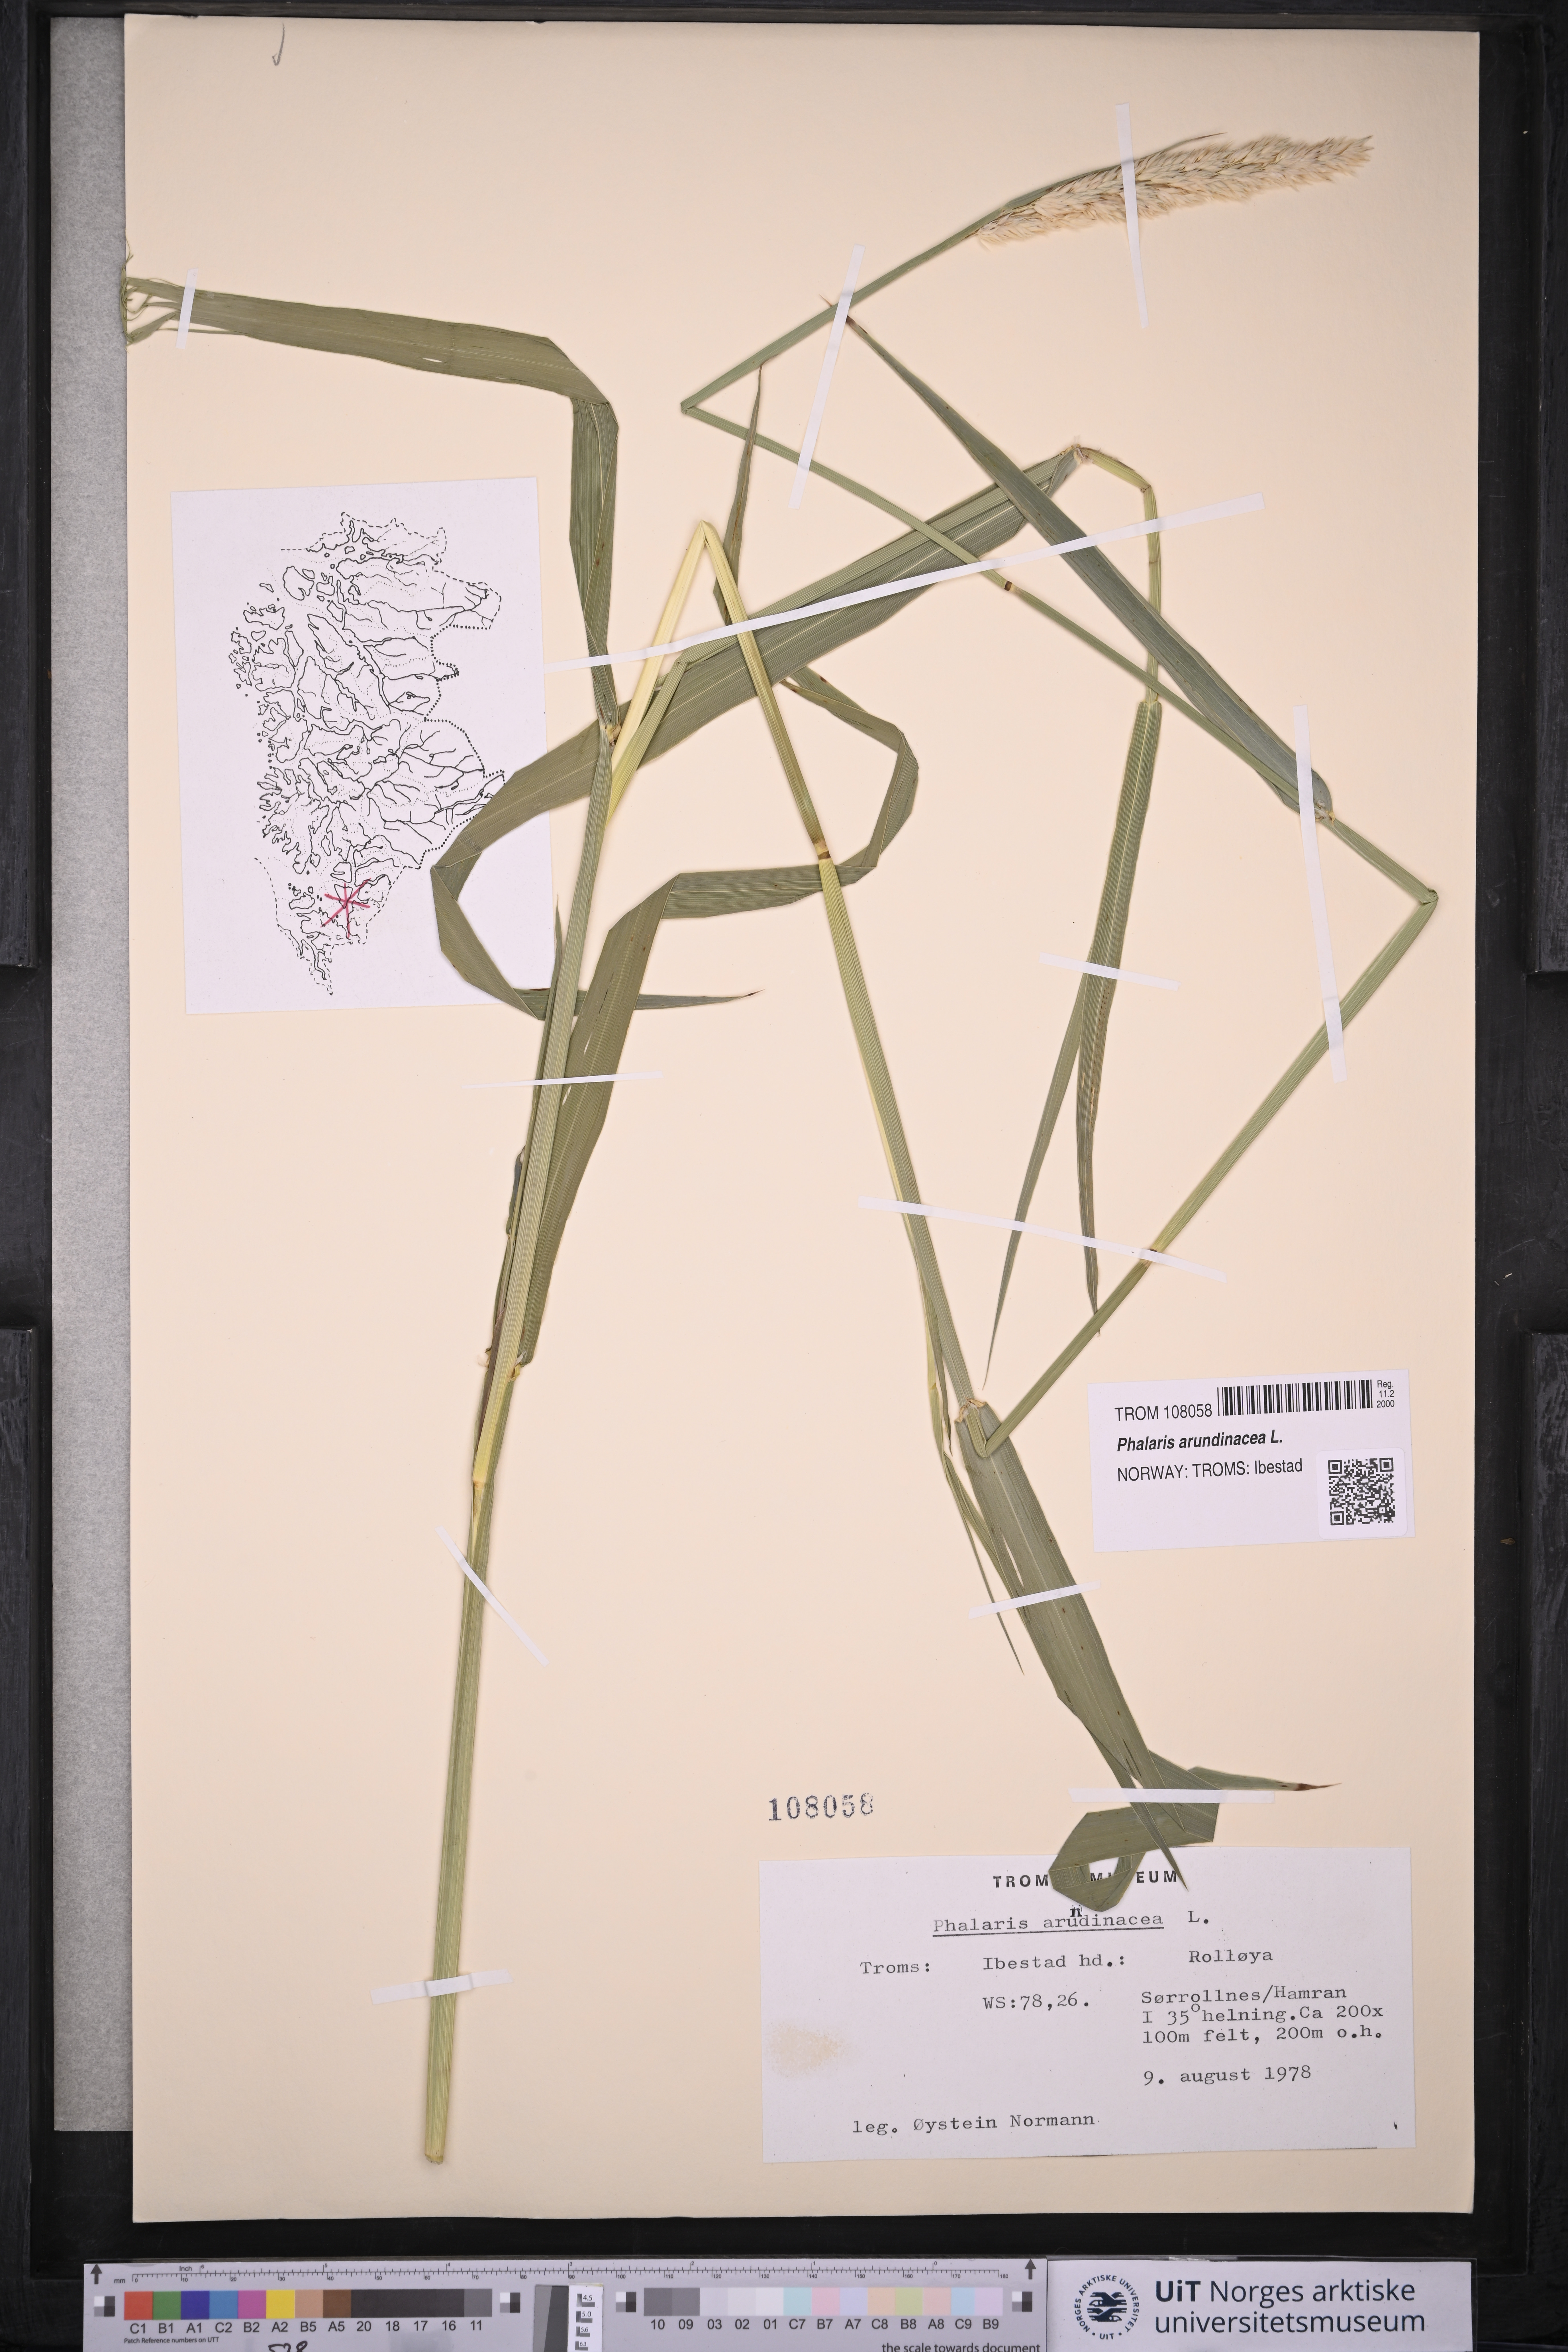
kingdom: Plantae
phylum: Tracheophyta
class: Liliopsida
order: Poales
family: Poaceae
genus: Phalaris
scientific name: Phalaris arundinacea
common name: Reed canary-grass
